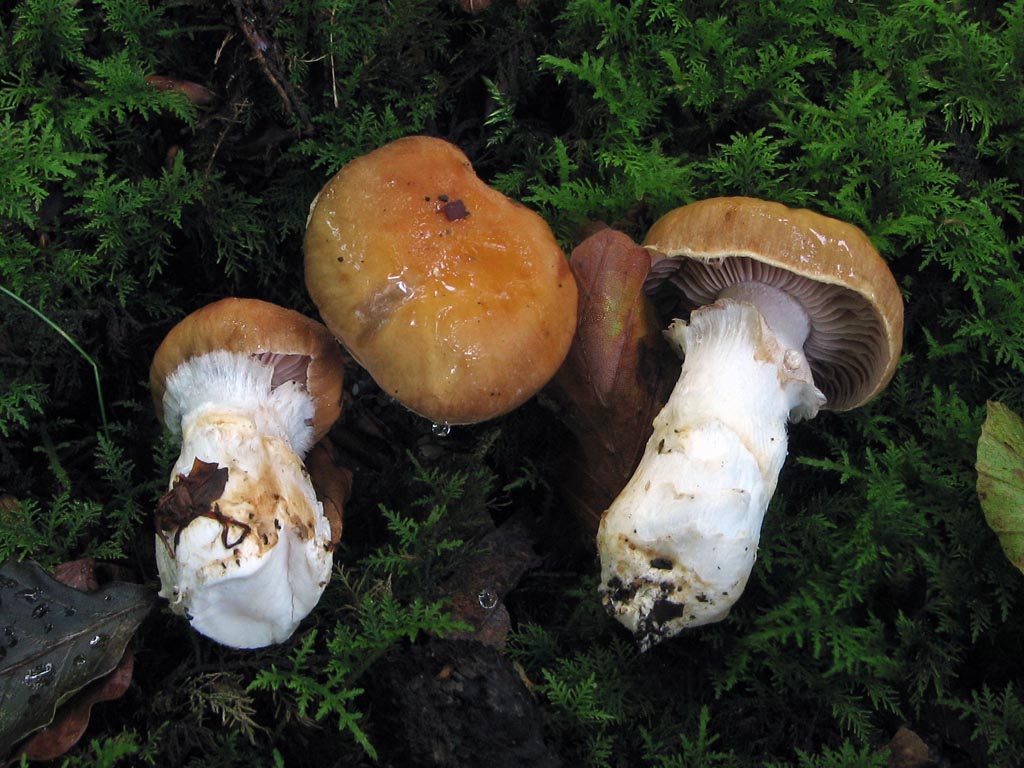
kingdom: Fungi
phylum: Basidiomycota
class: Agaricomycetes
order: Agaricales
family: Cortinariaceae
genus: Phlegmacium
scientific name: Phlegmacium vulpinum
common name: ringbæltet slørhat
